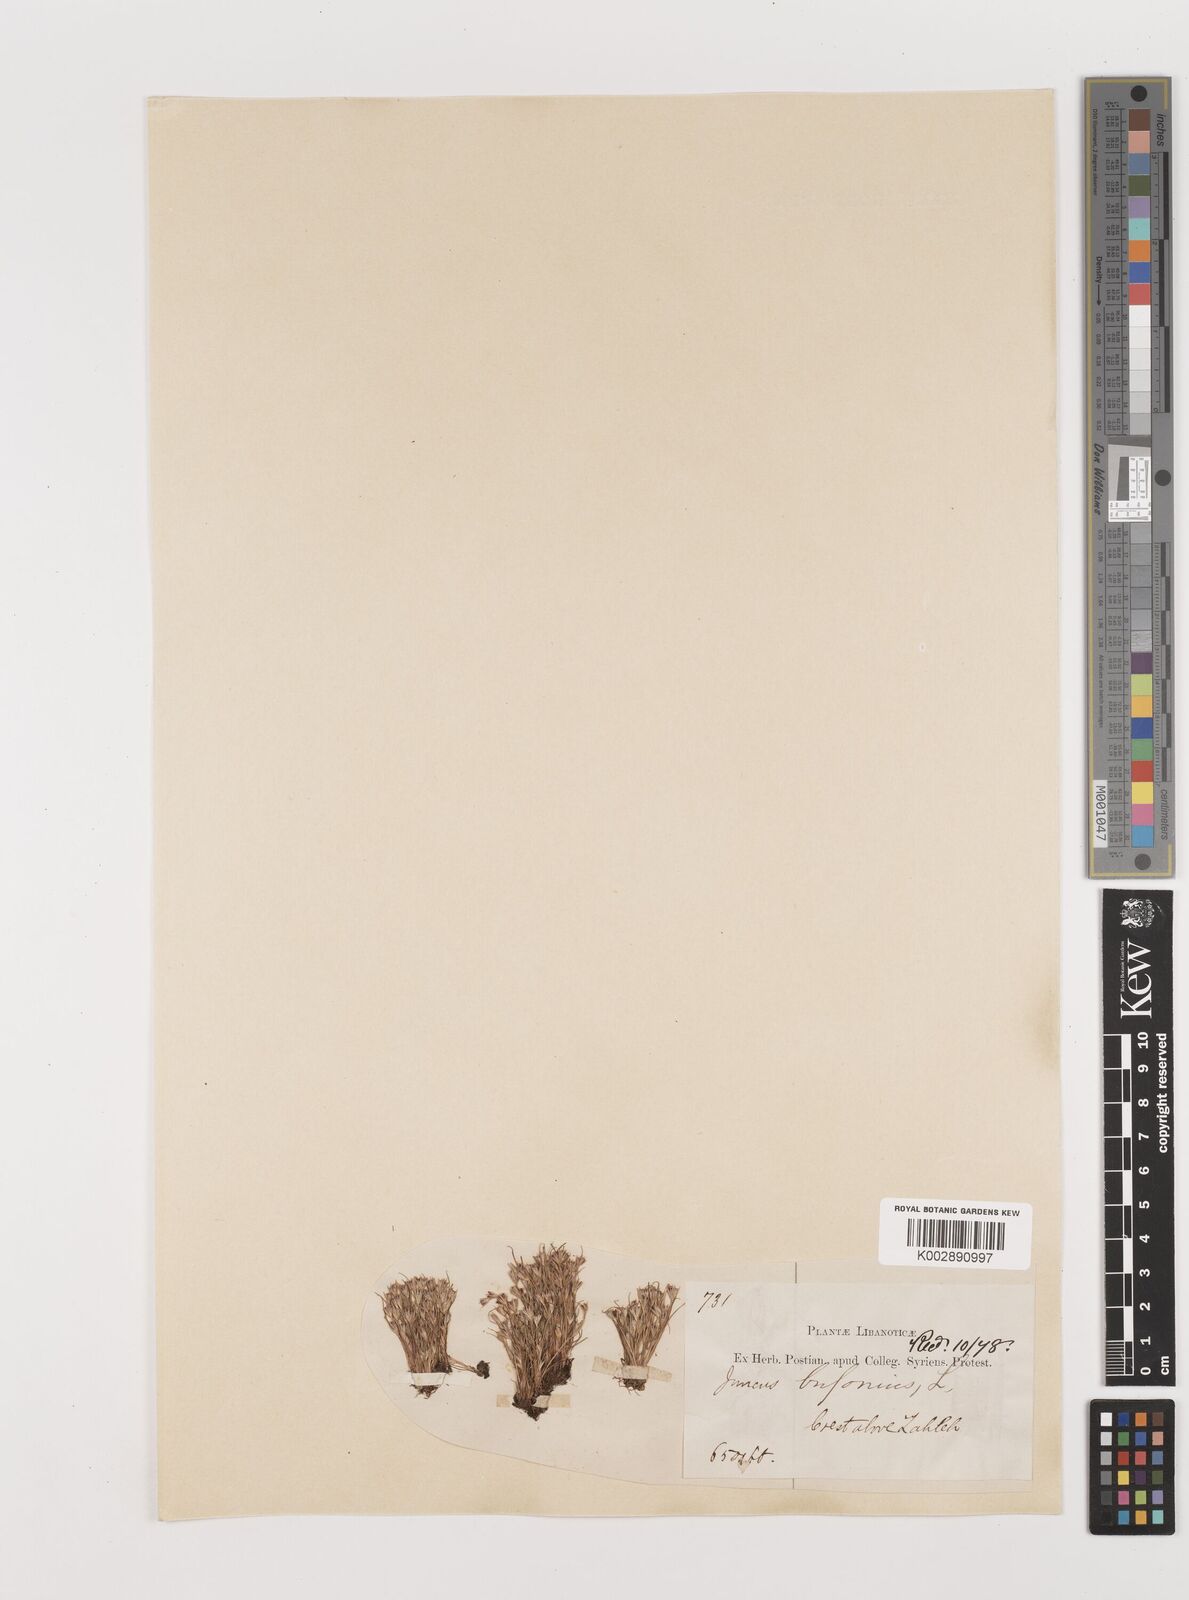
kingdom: Plantae
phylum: Tracheophyta
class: Liliopsida
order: Poales
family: Juncaceae
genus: Juncus
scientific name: Juncus bufonius
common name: Toad rush
